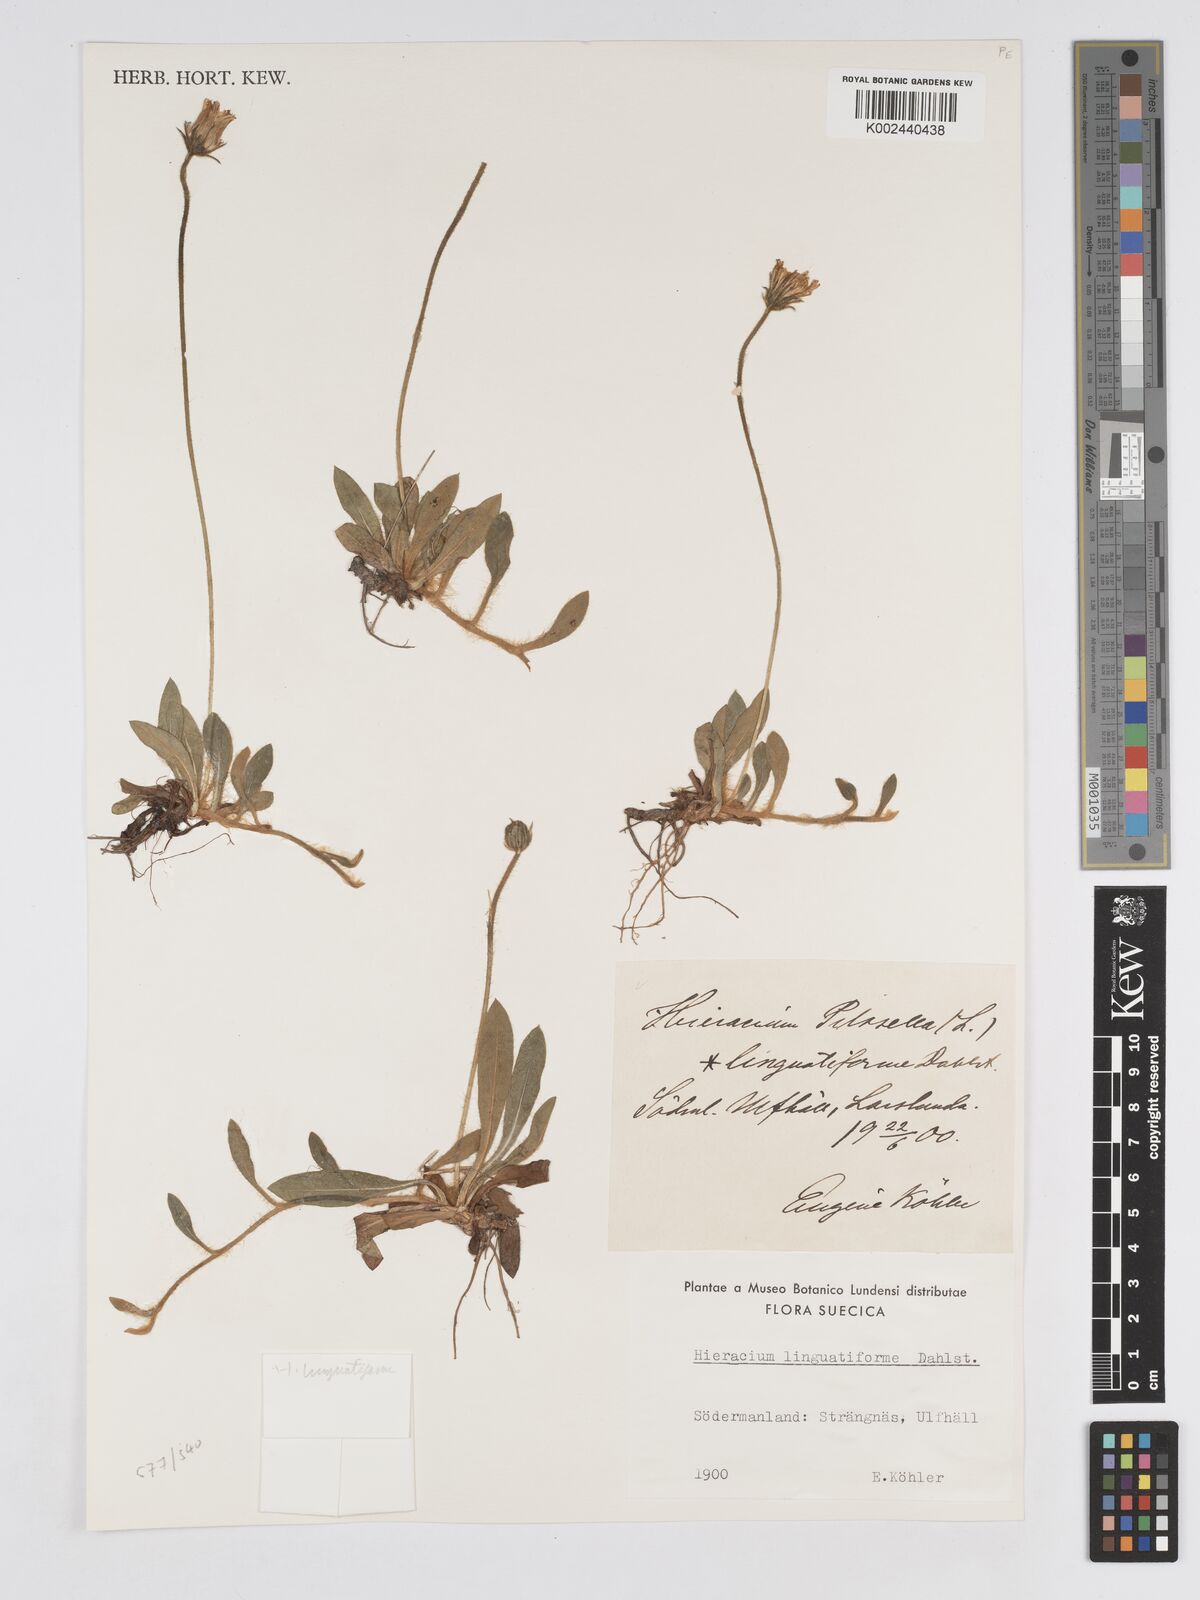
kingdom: Plantae
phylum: Tracheophyta
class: Magnoliopsida
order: Asterales
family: Asteraceae
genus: Hieracium
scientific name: Hieracium
